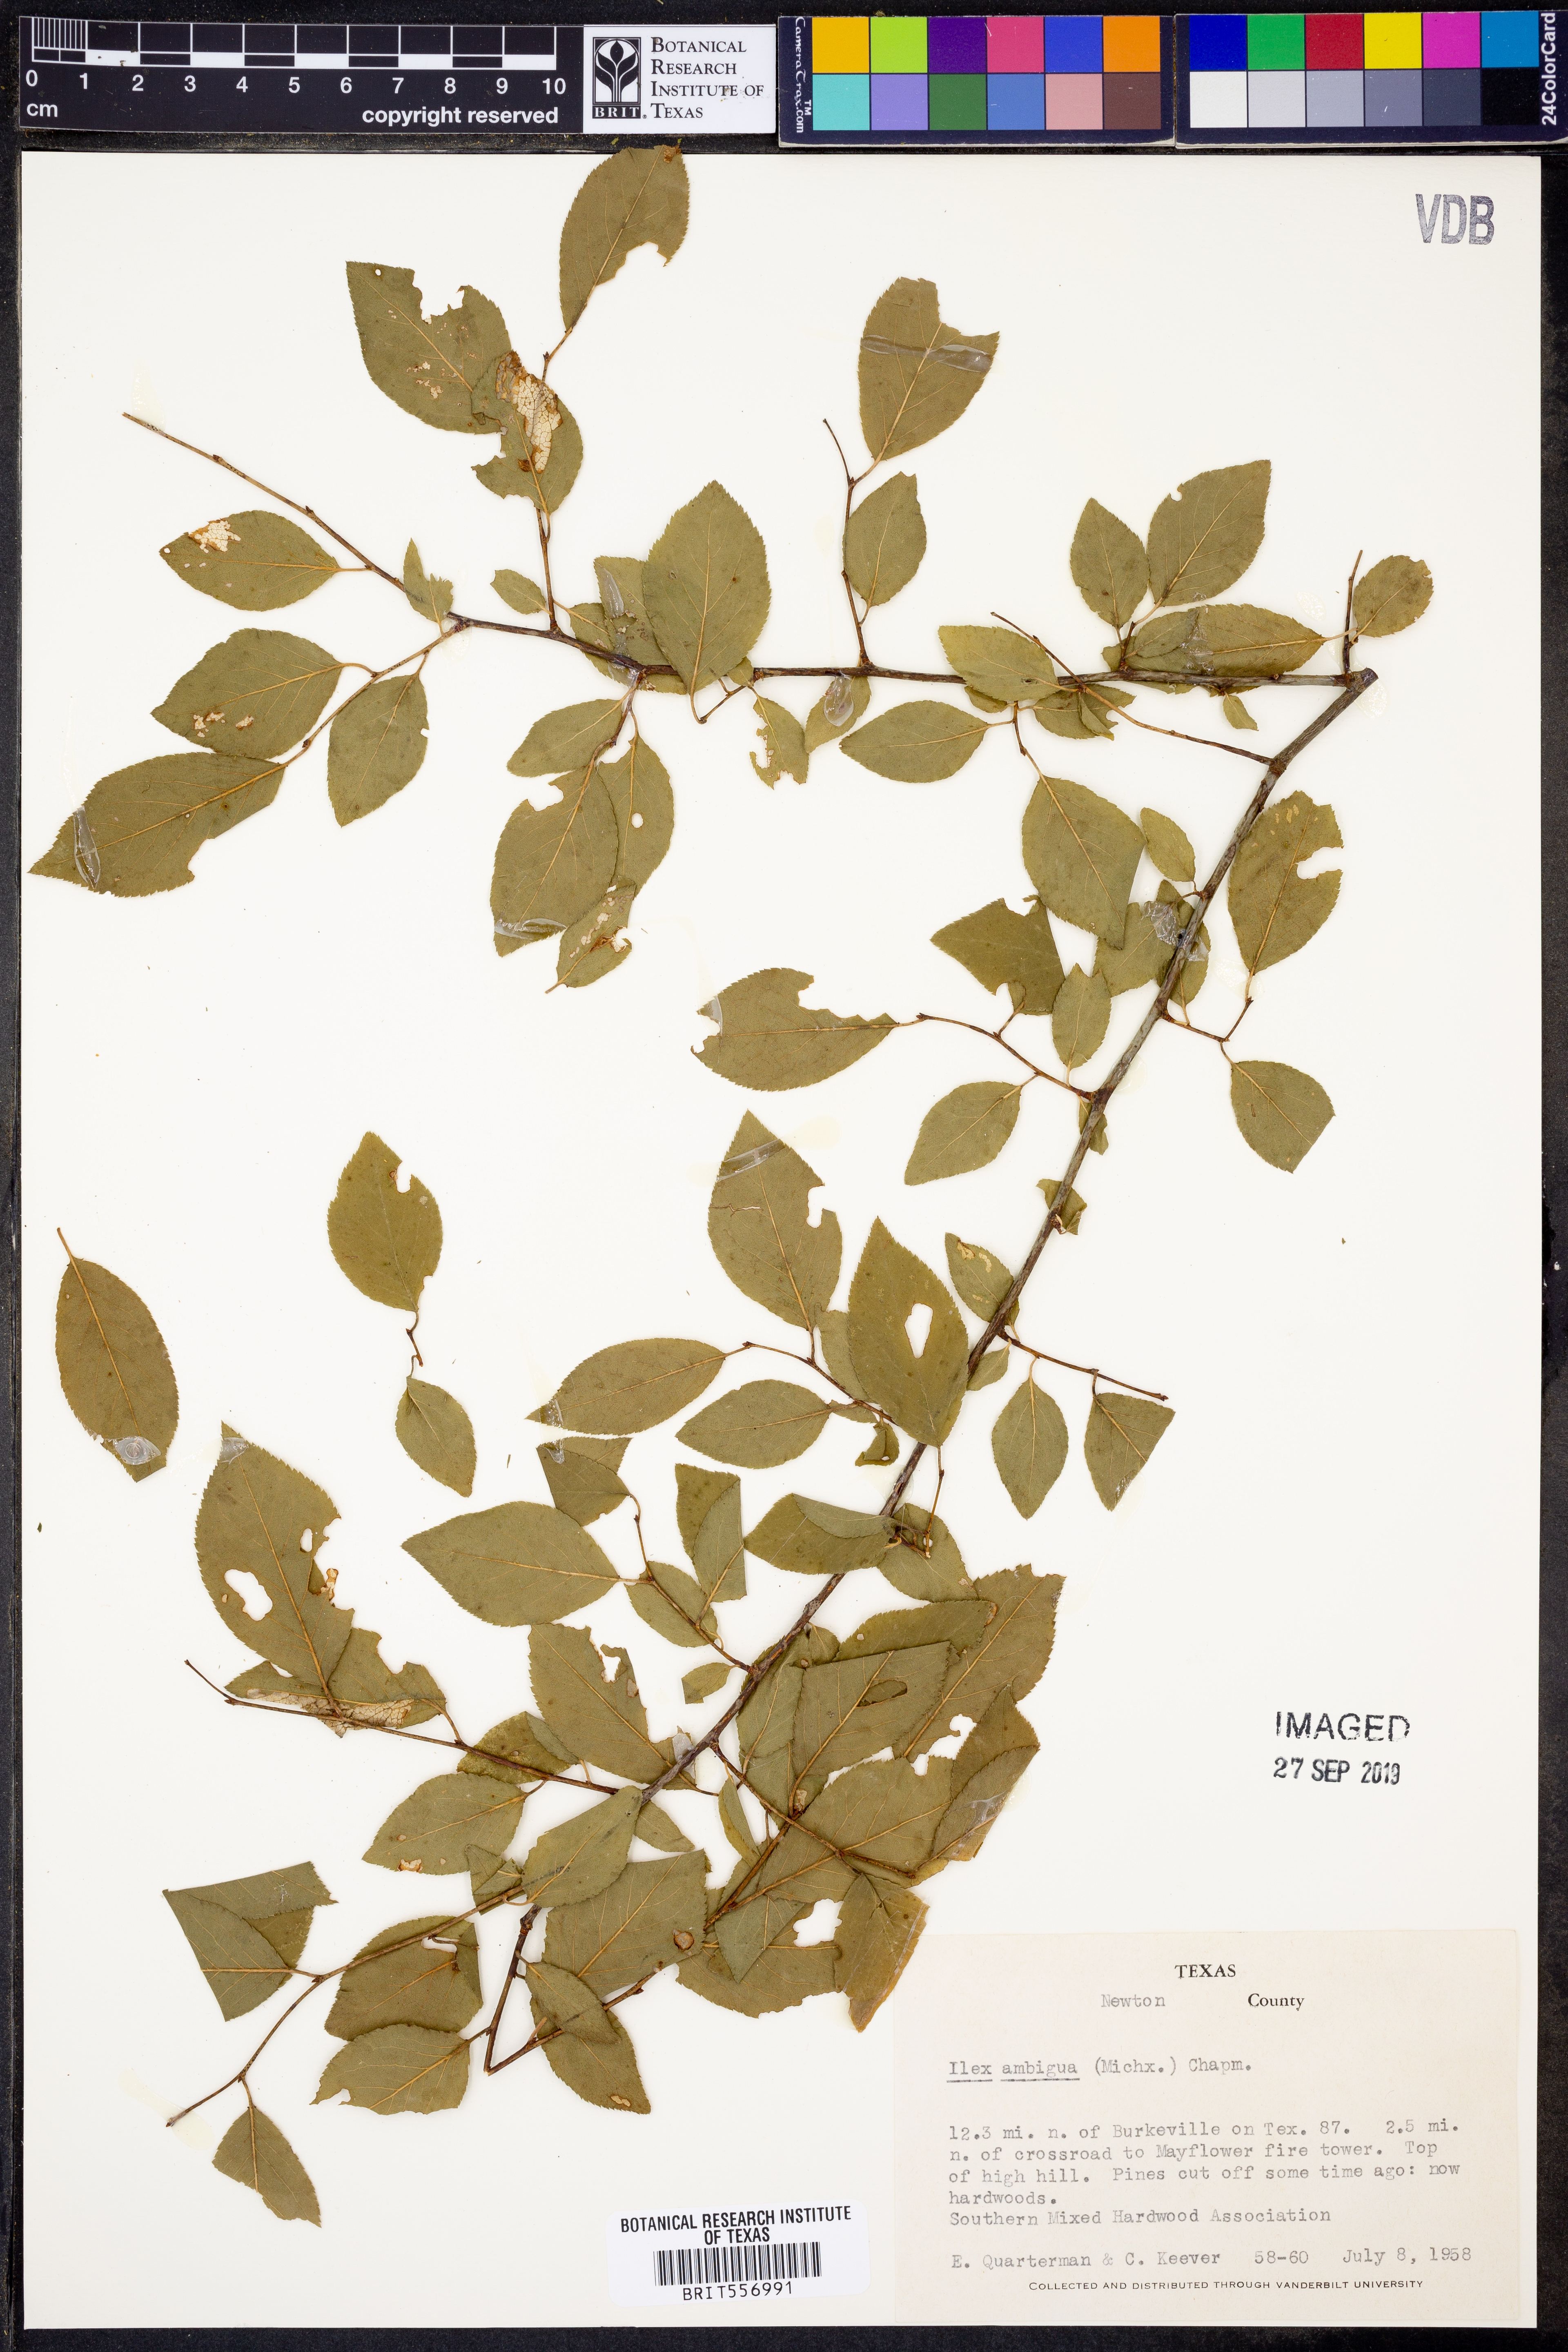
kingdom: Plantae
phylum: Tracheophyta
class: Magnoliopsida
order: Aquifoliales
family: Aquifoliaceae
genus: Ilex
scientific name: Ilex ambigua
